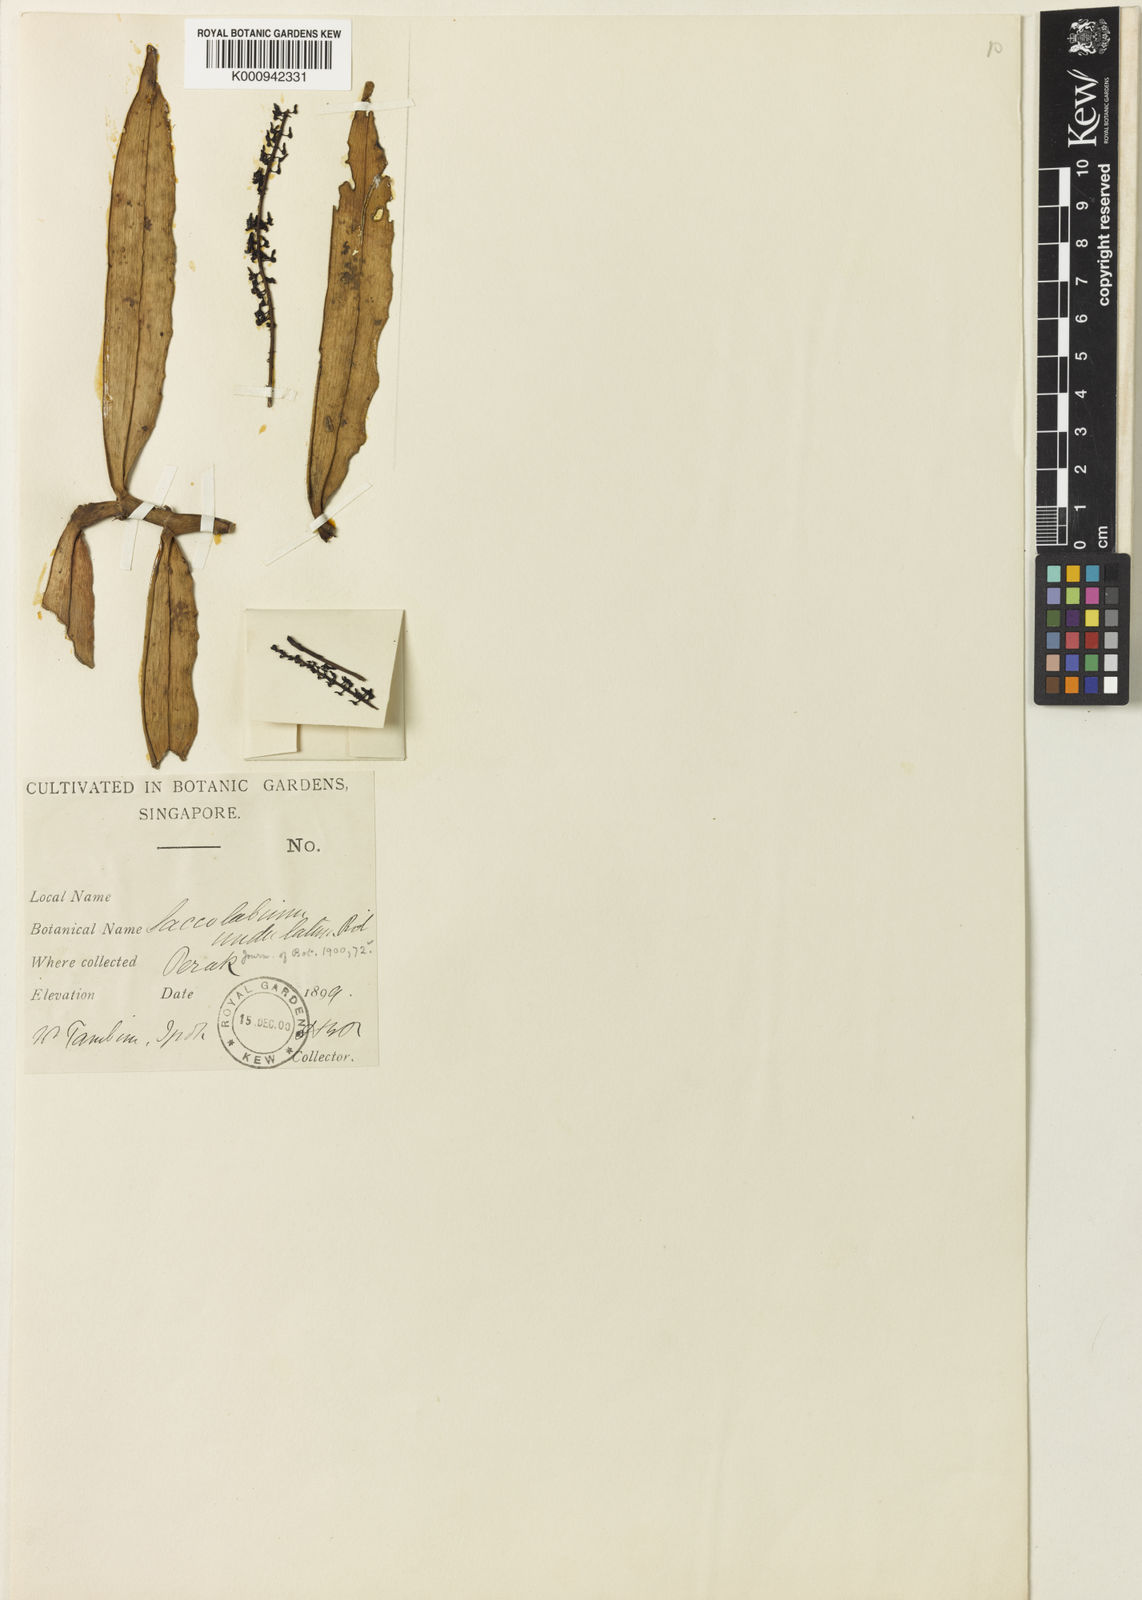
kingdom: Plantae
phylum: Tracheophyta
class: Liliopsida
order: Asparagales
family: Orchidaceae
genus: Robiquetia
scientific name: Robiquetia sylvestris
